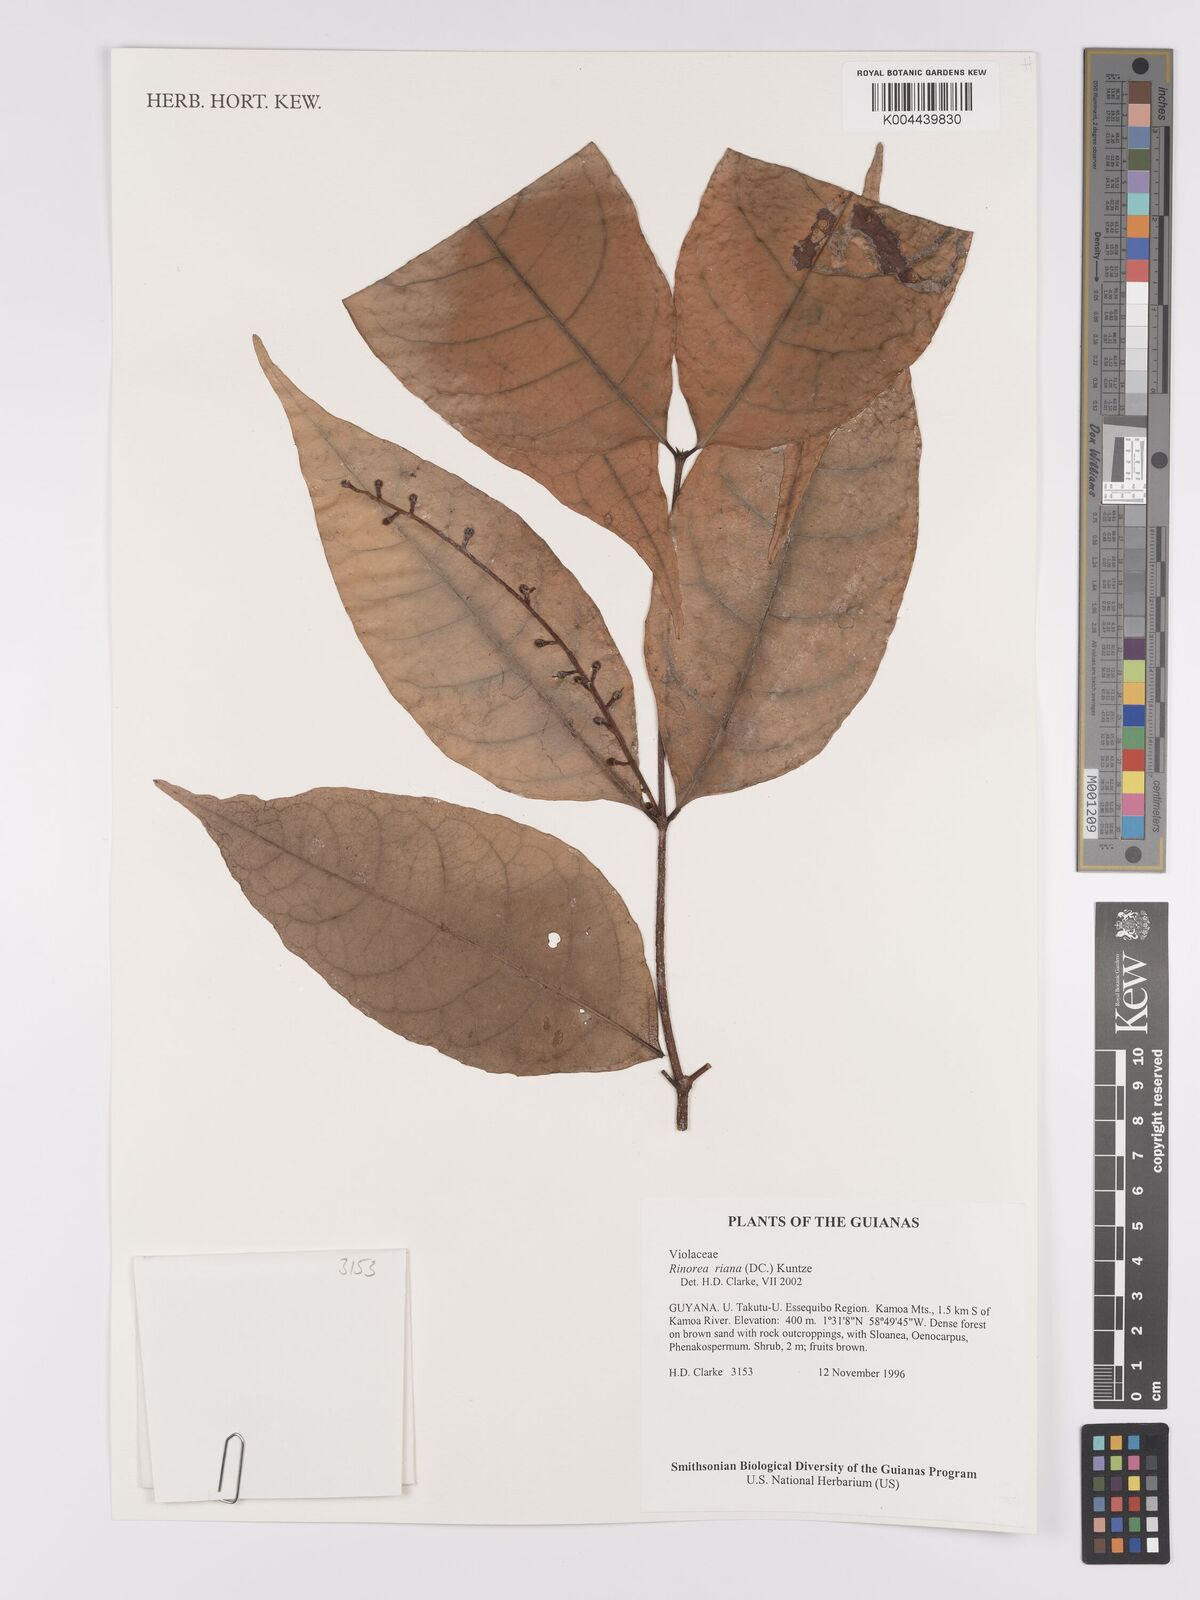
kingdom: Plantae
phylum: Tracheophyta
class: Magnoliopsida
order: Malpighiales
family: Violaceae
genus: Rinorea
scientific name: Rinorea riana
